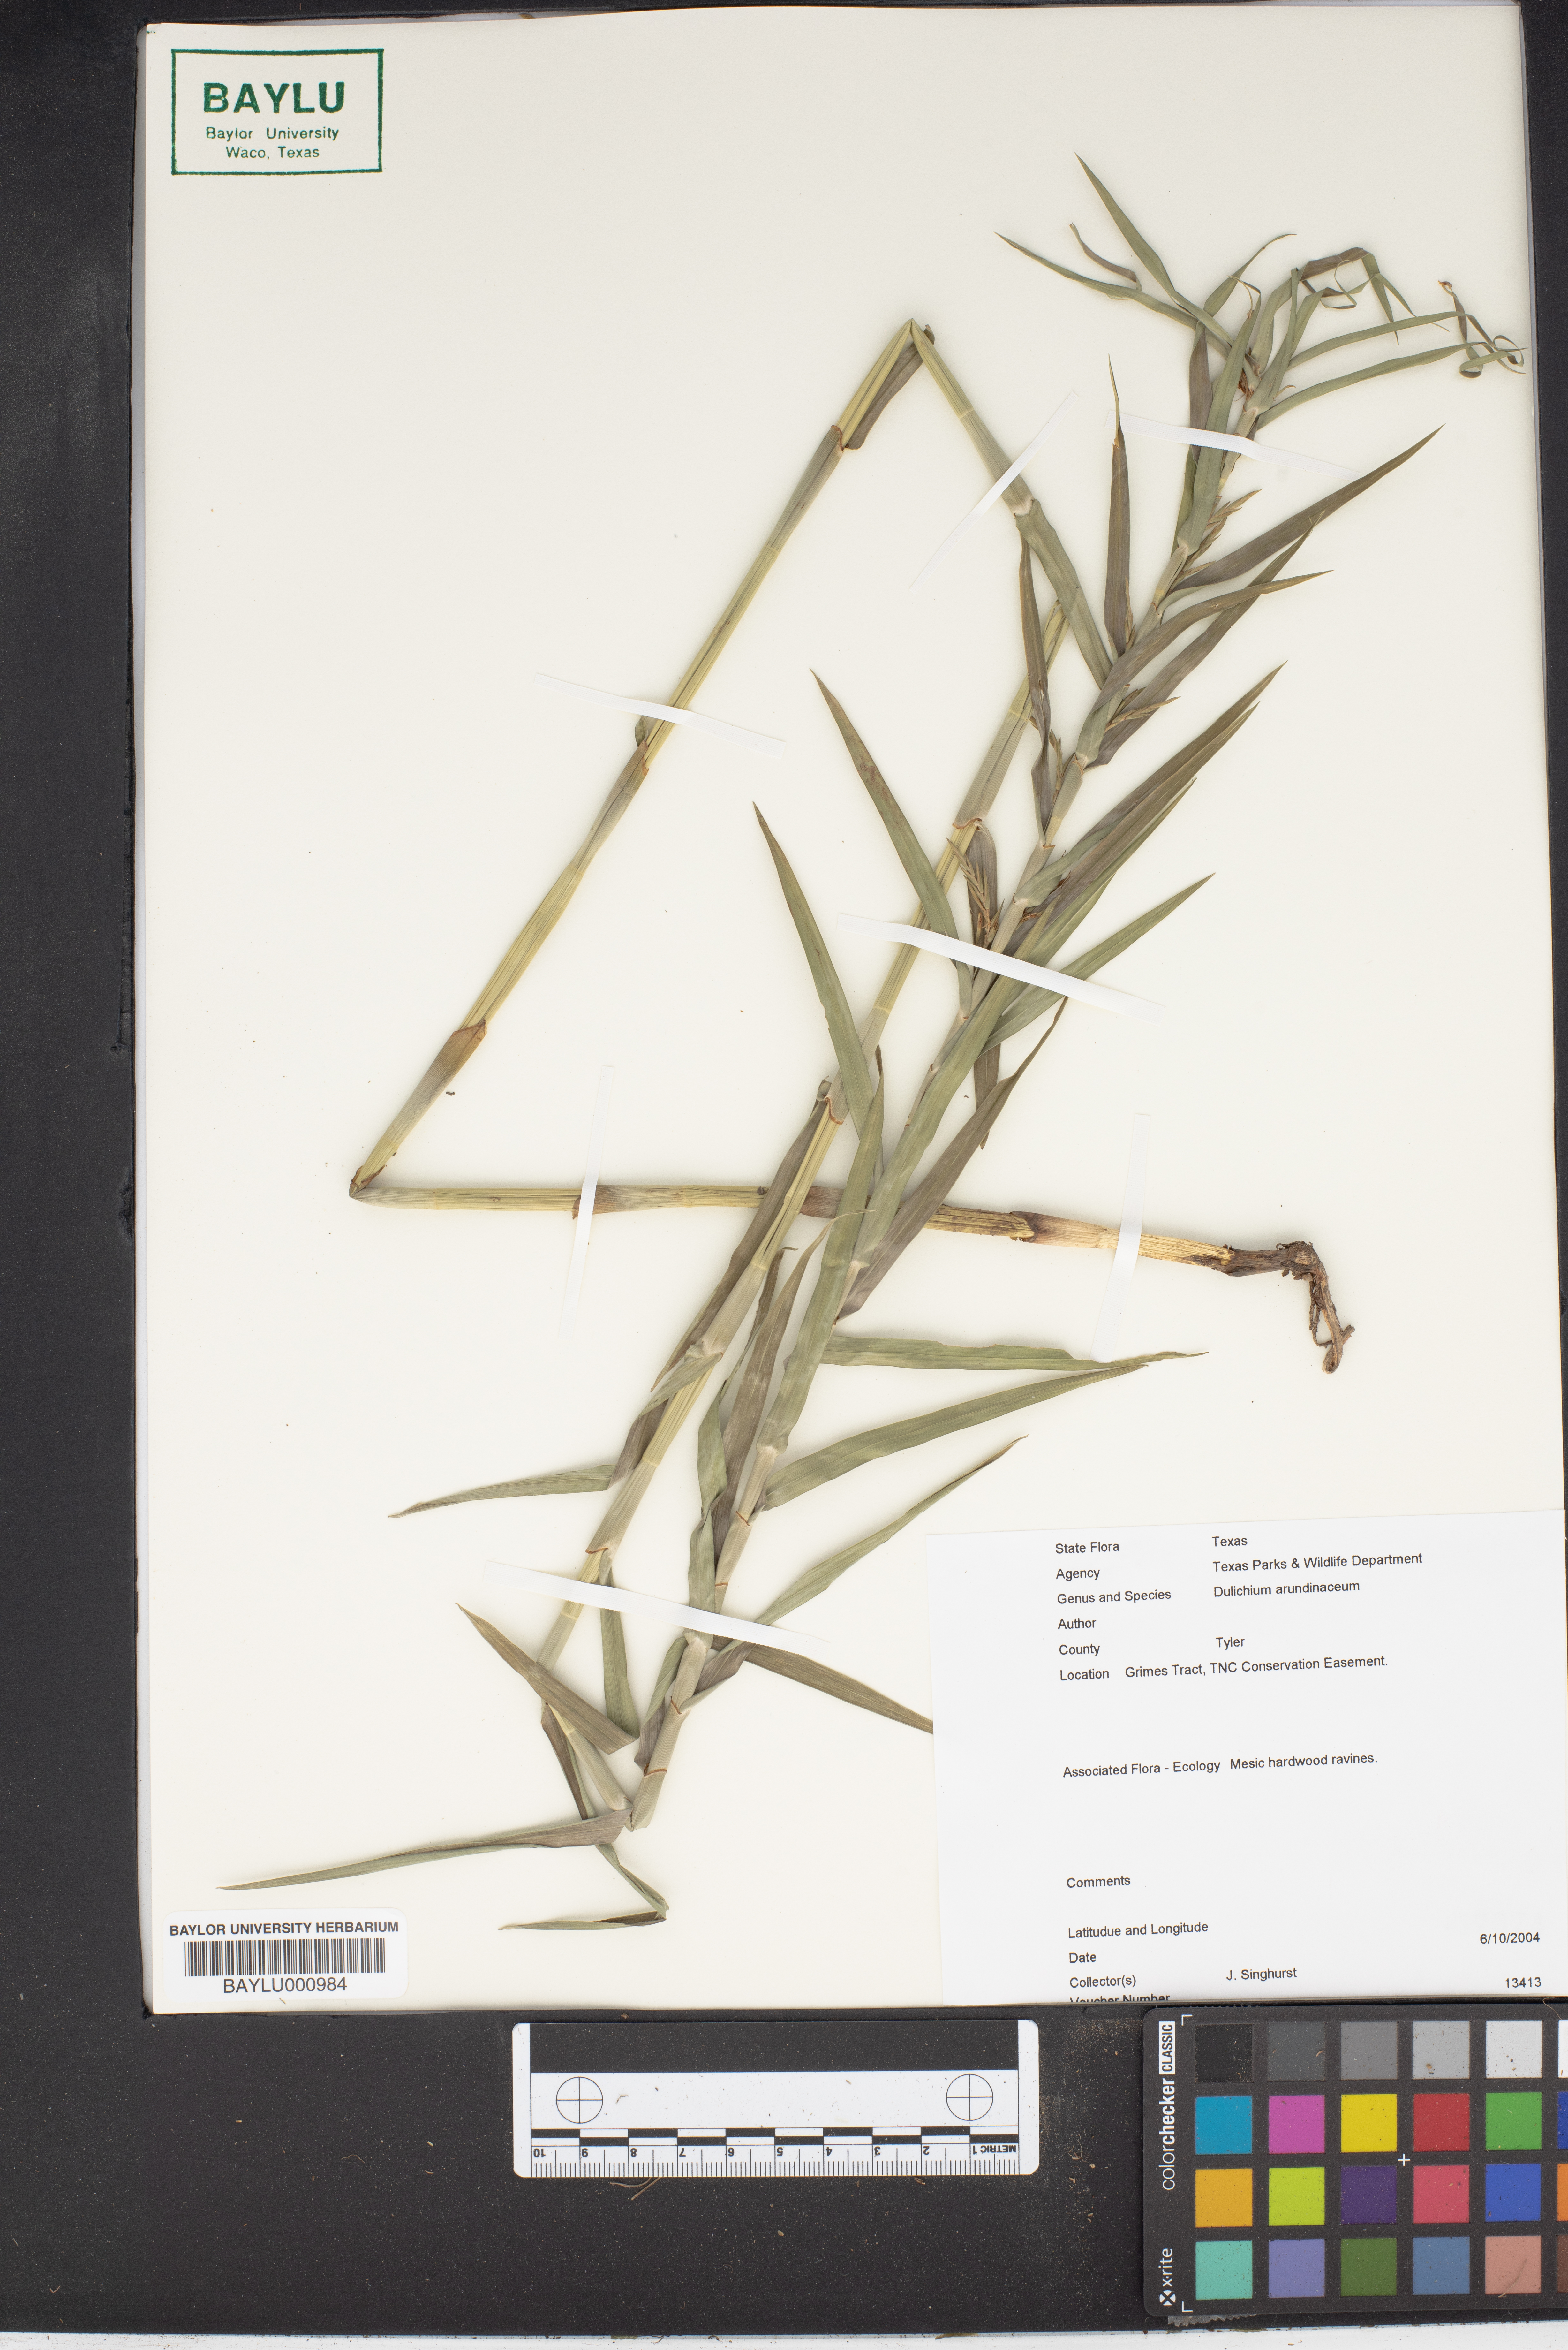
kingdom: Plantae
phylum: Tracheophyta
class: Liliopsida
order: Poales
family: Cyperaceae
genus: Dulichium
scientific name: Dulichium arundinaceum
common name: Three-way sedge
